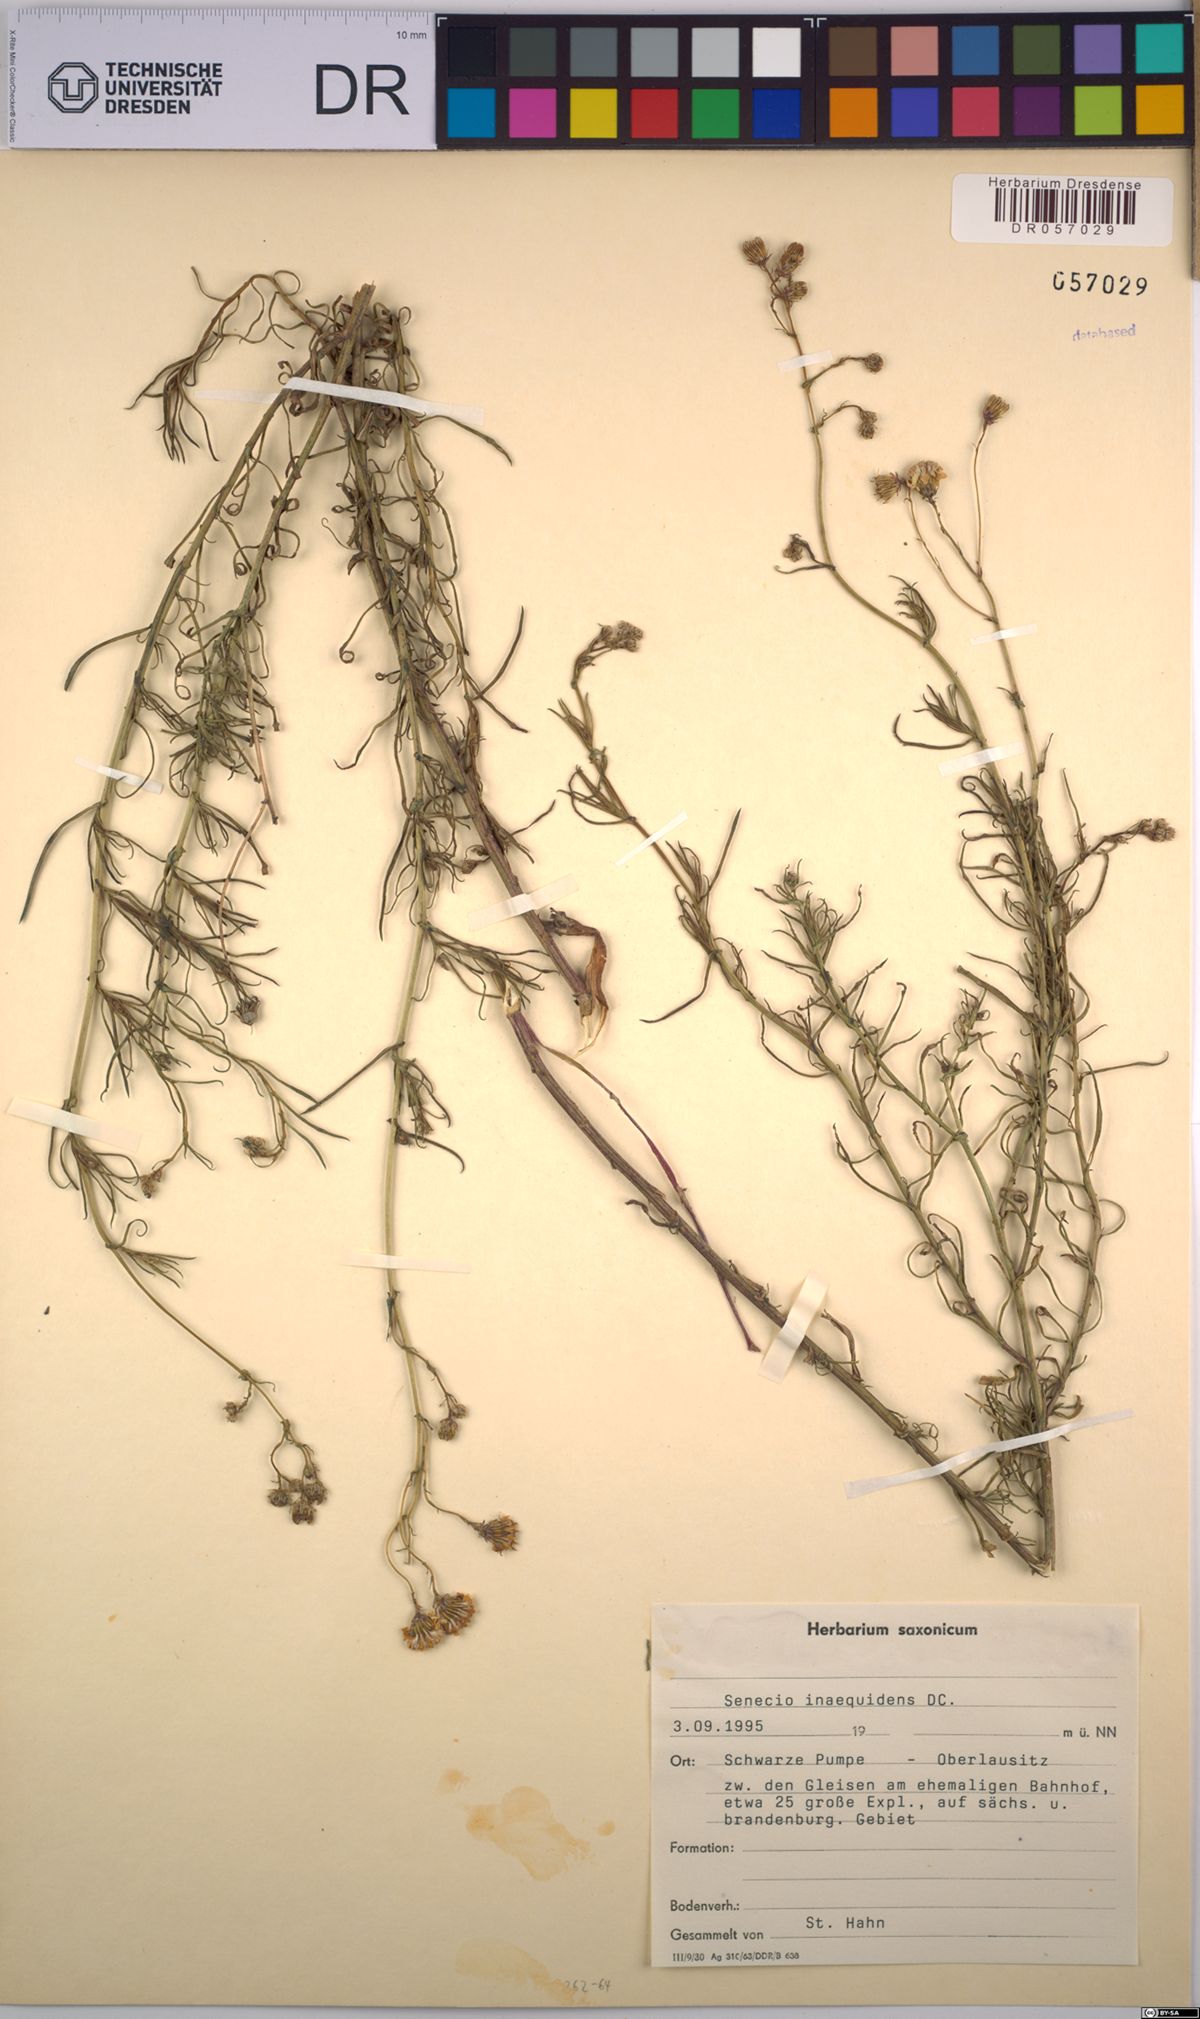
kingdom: Plantae
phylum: Tracheophyta
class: Magnoliopsida
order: Asterales
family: Asteraceae
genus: Senecio
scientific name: Senecio inaequidens
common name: Narrow-leaved ragwort
